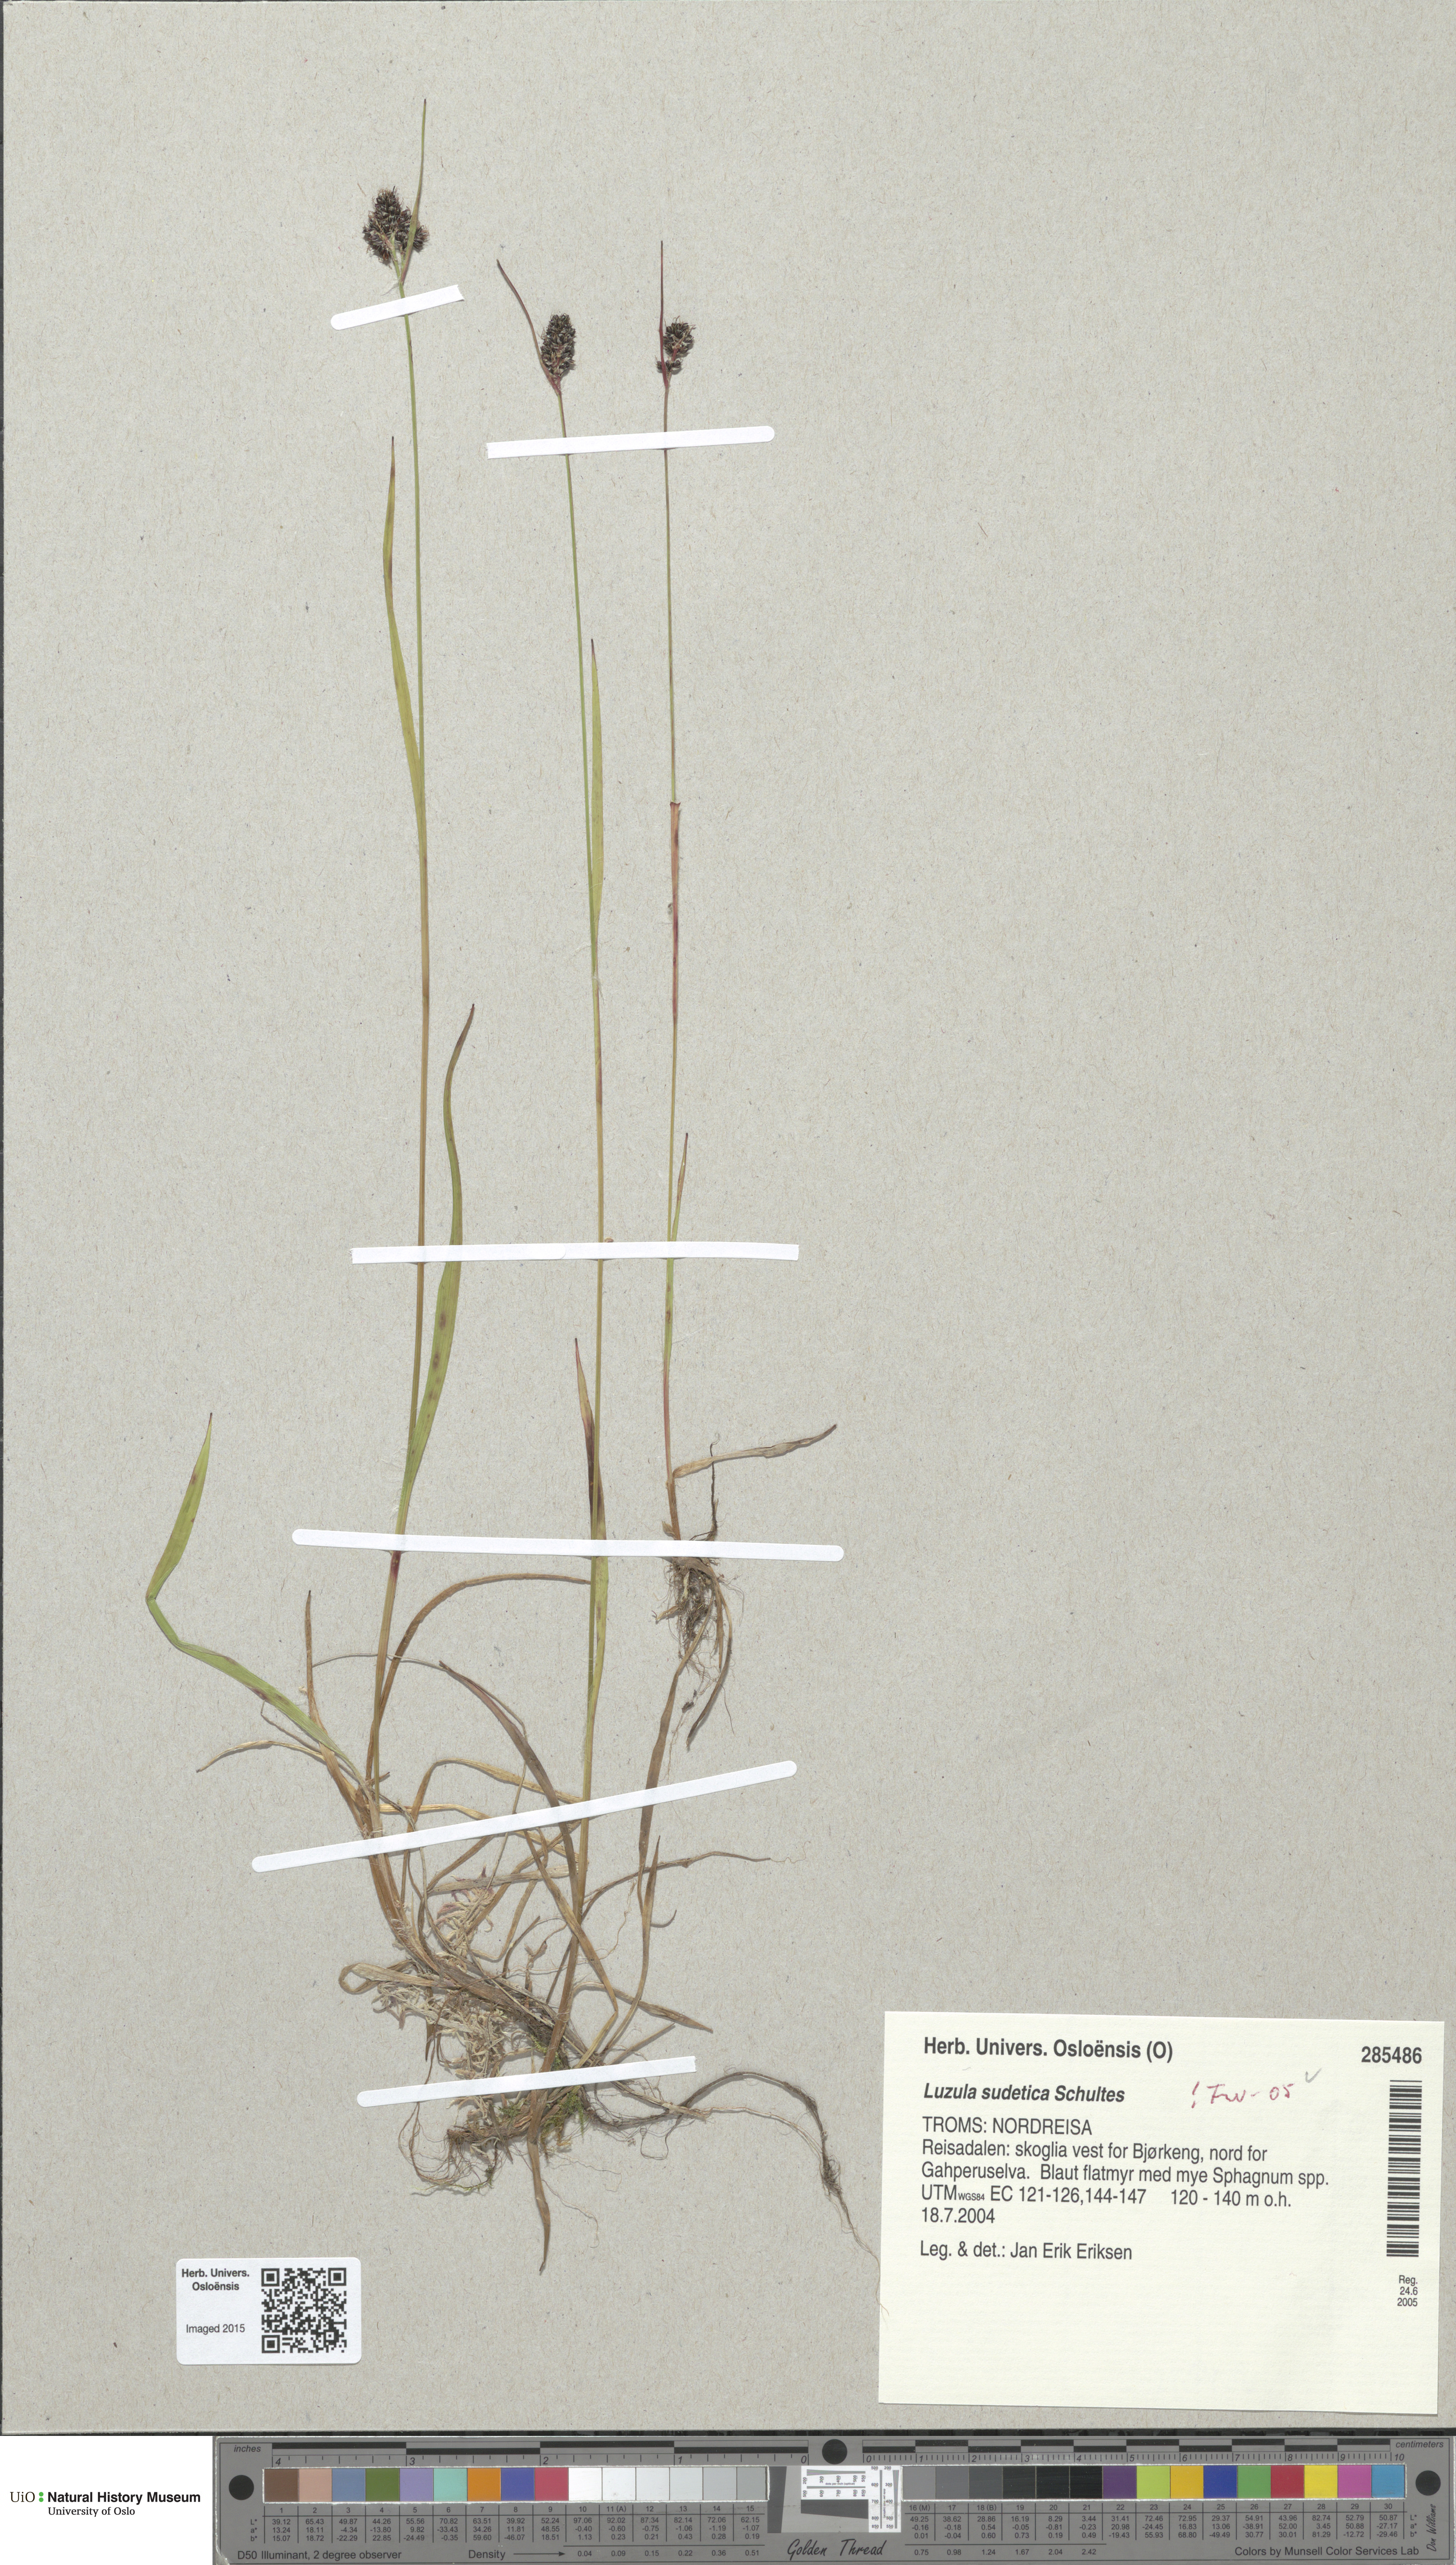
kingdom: Plantae
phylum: Tracheophyta
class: Liliopsida
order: Poales
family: Juncaceae
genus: Luzula
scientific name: Luzula sudetica
